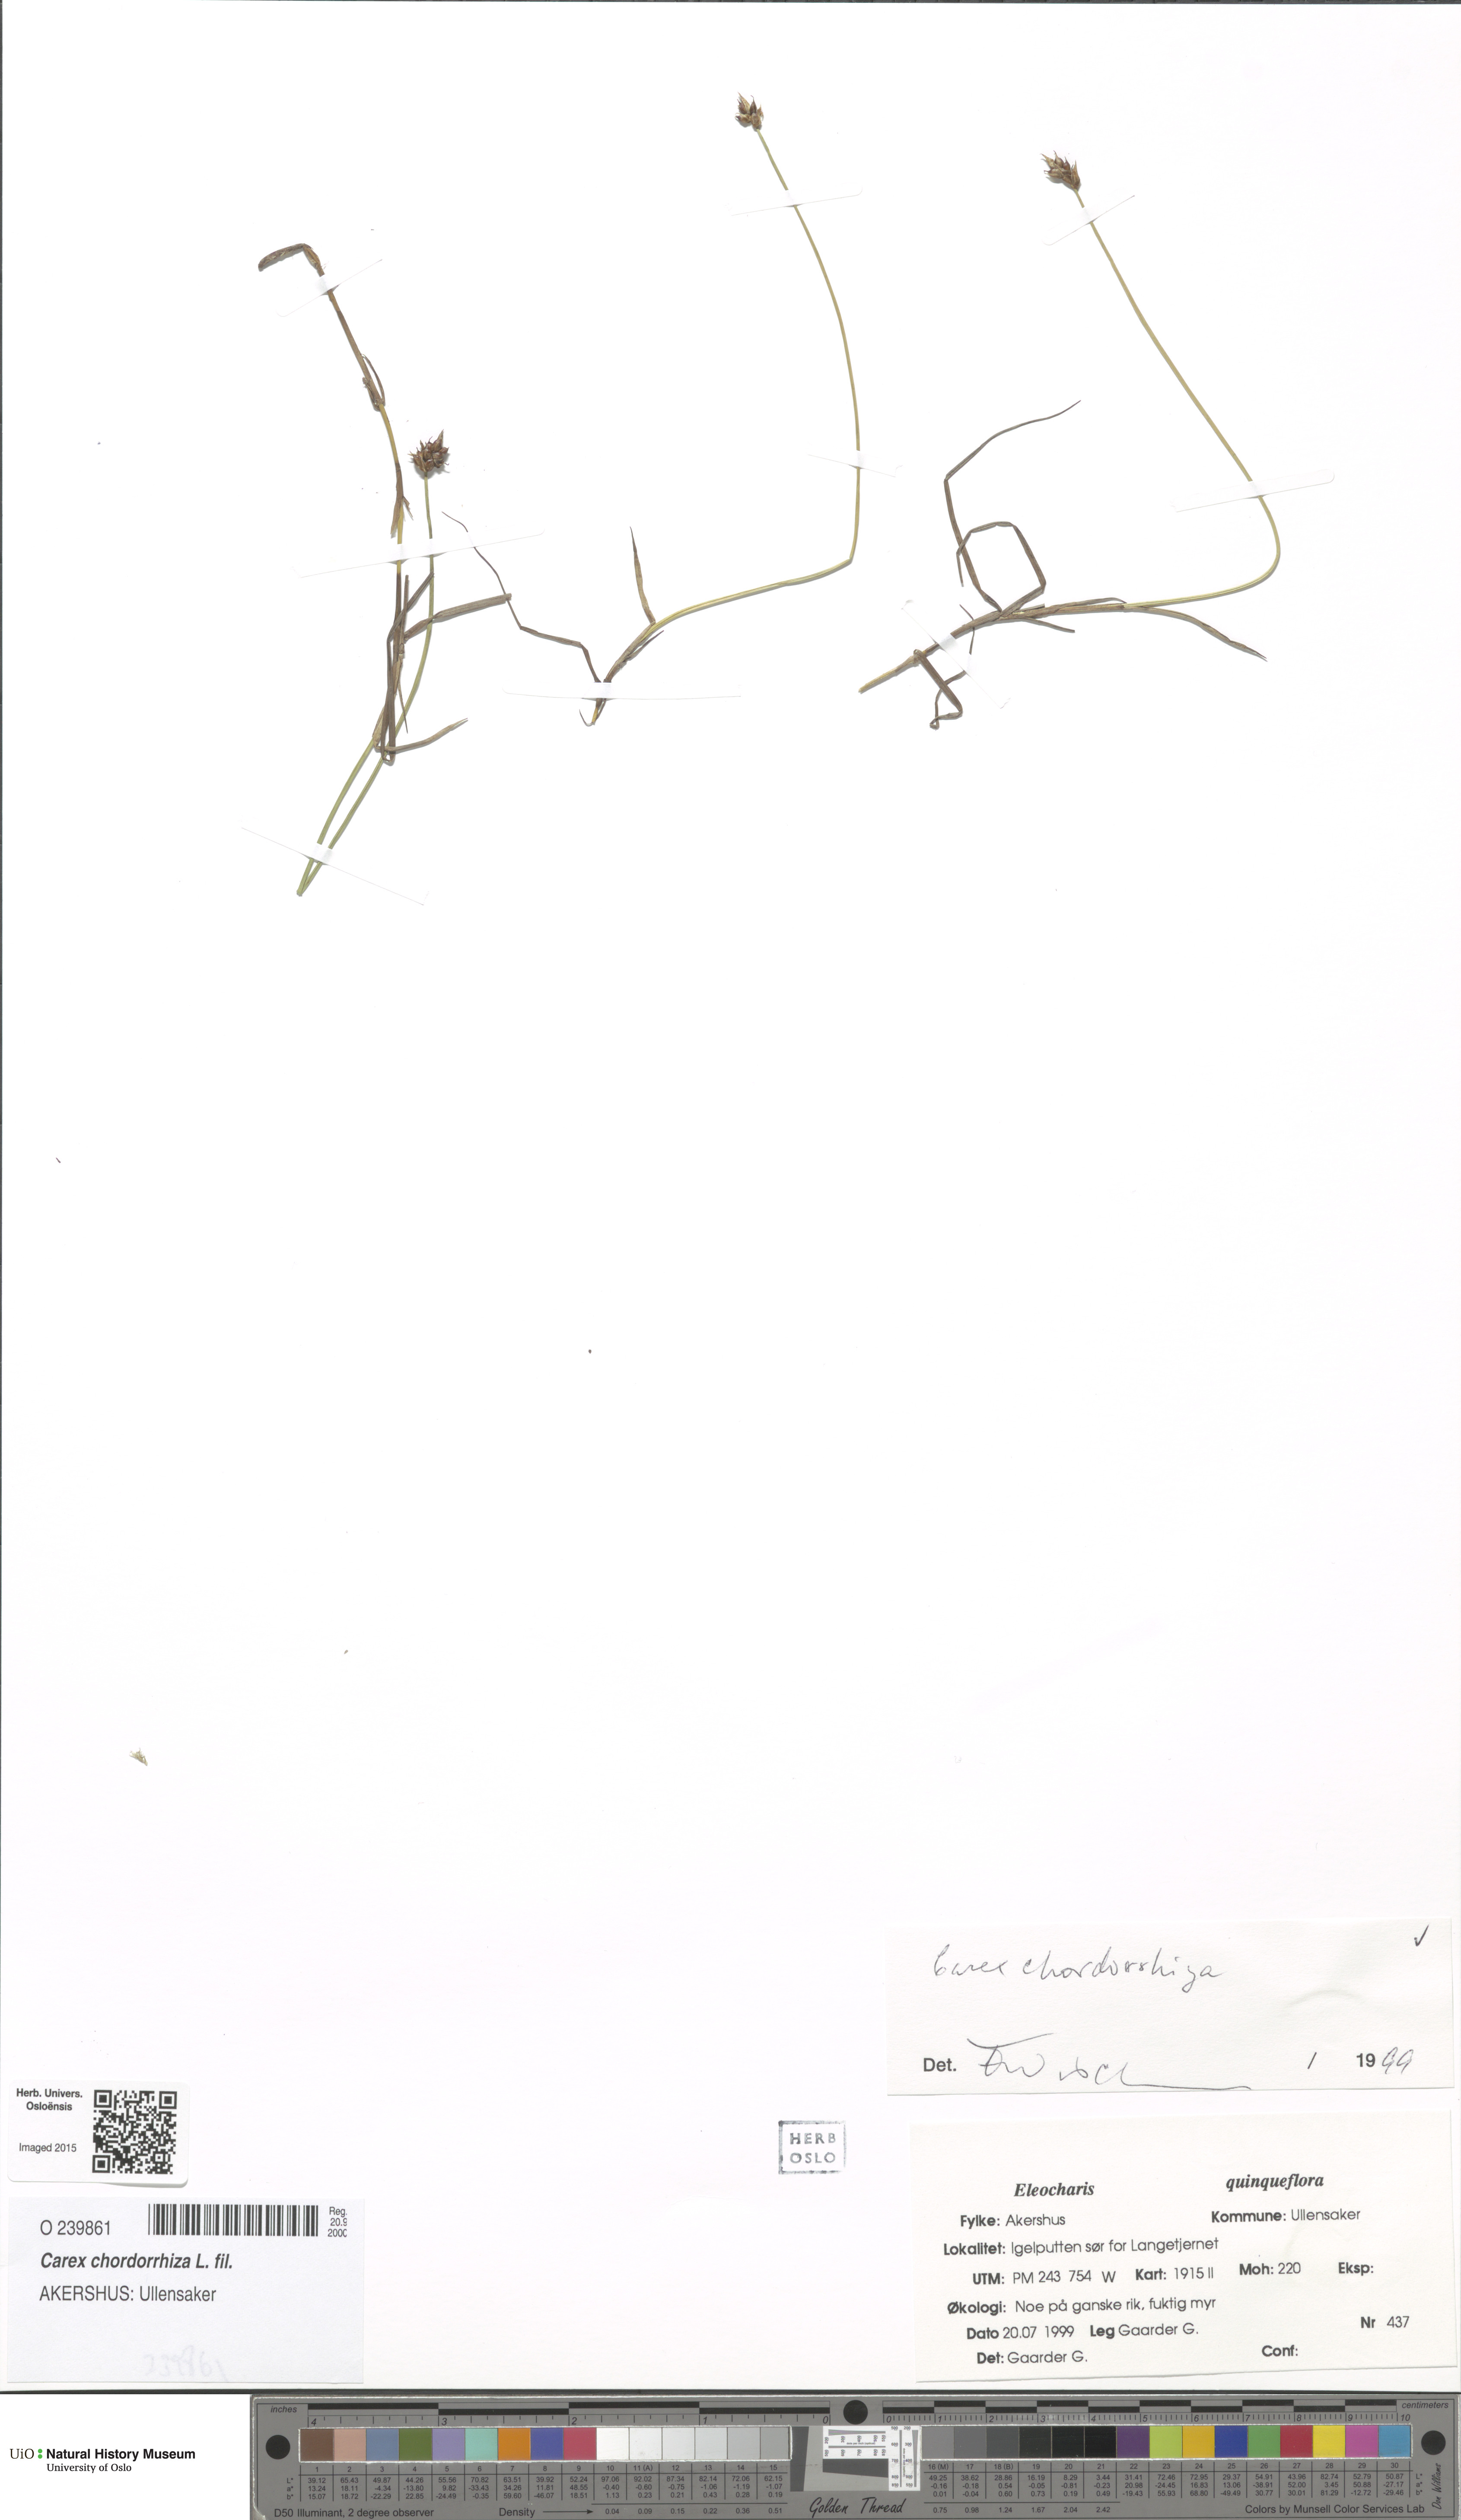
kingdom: Plantae
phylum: Tracheophyta
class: Liliopsida
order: Poales
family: Cyperaceae
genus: Carex
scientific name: Carex chordorrhiza
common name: String sedge
